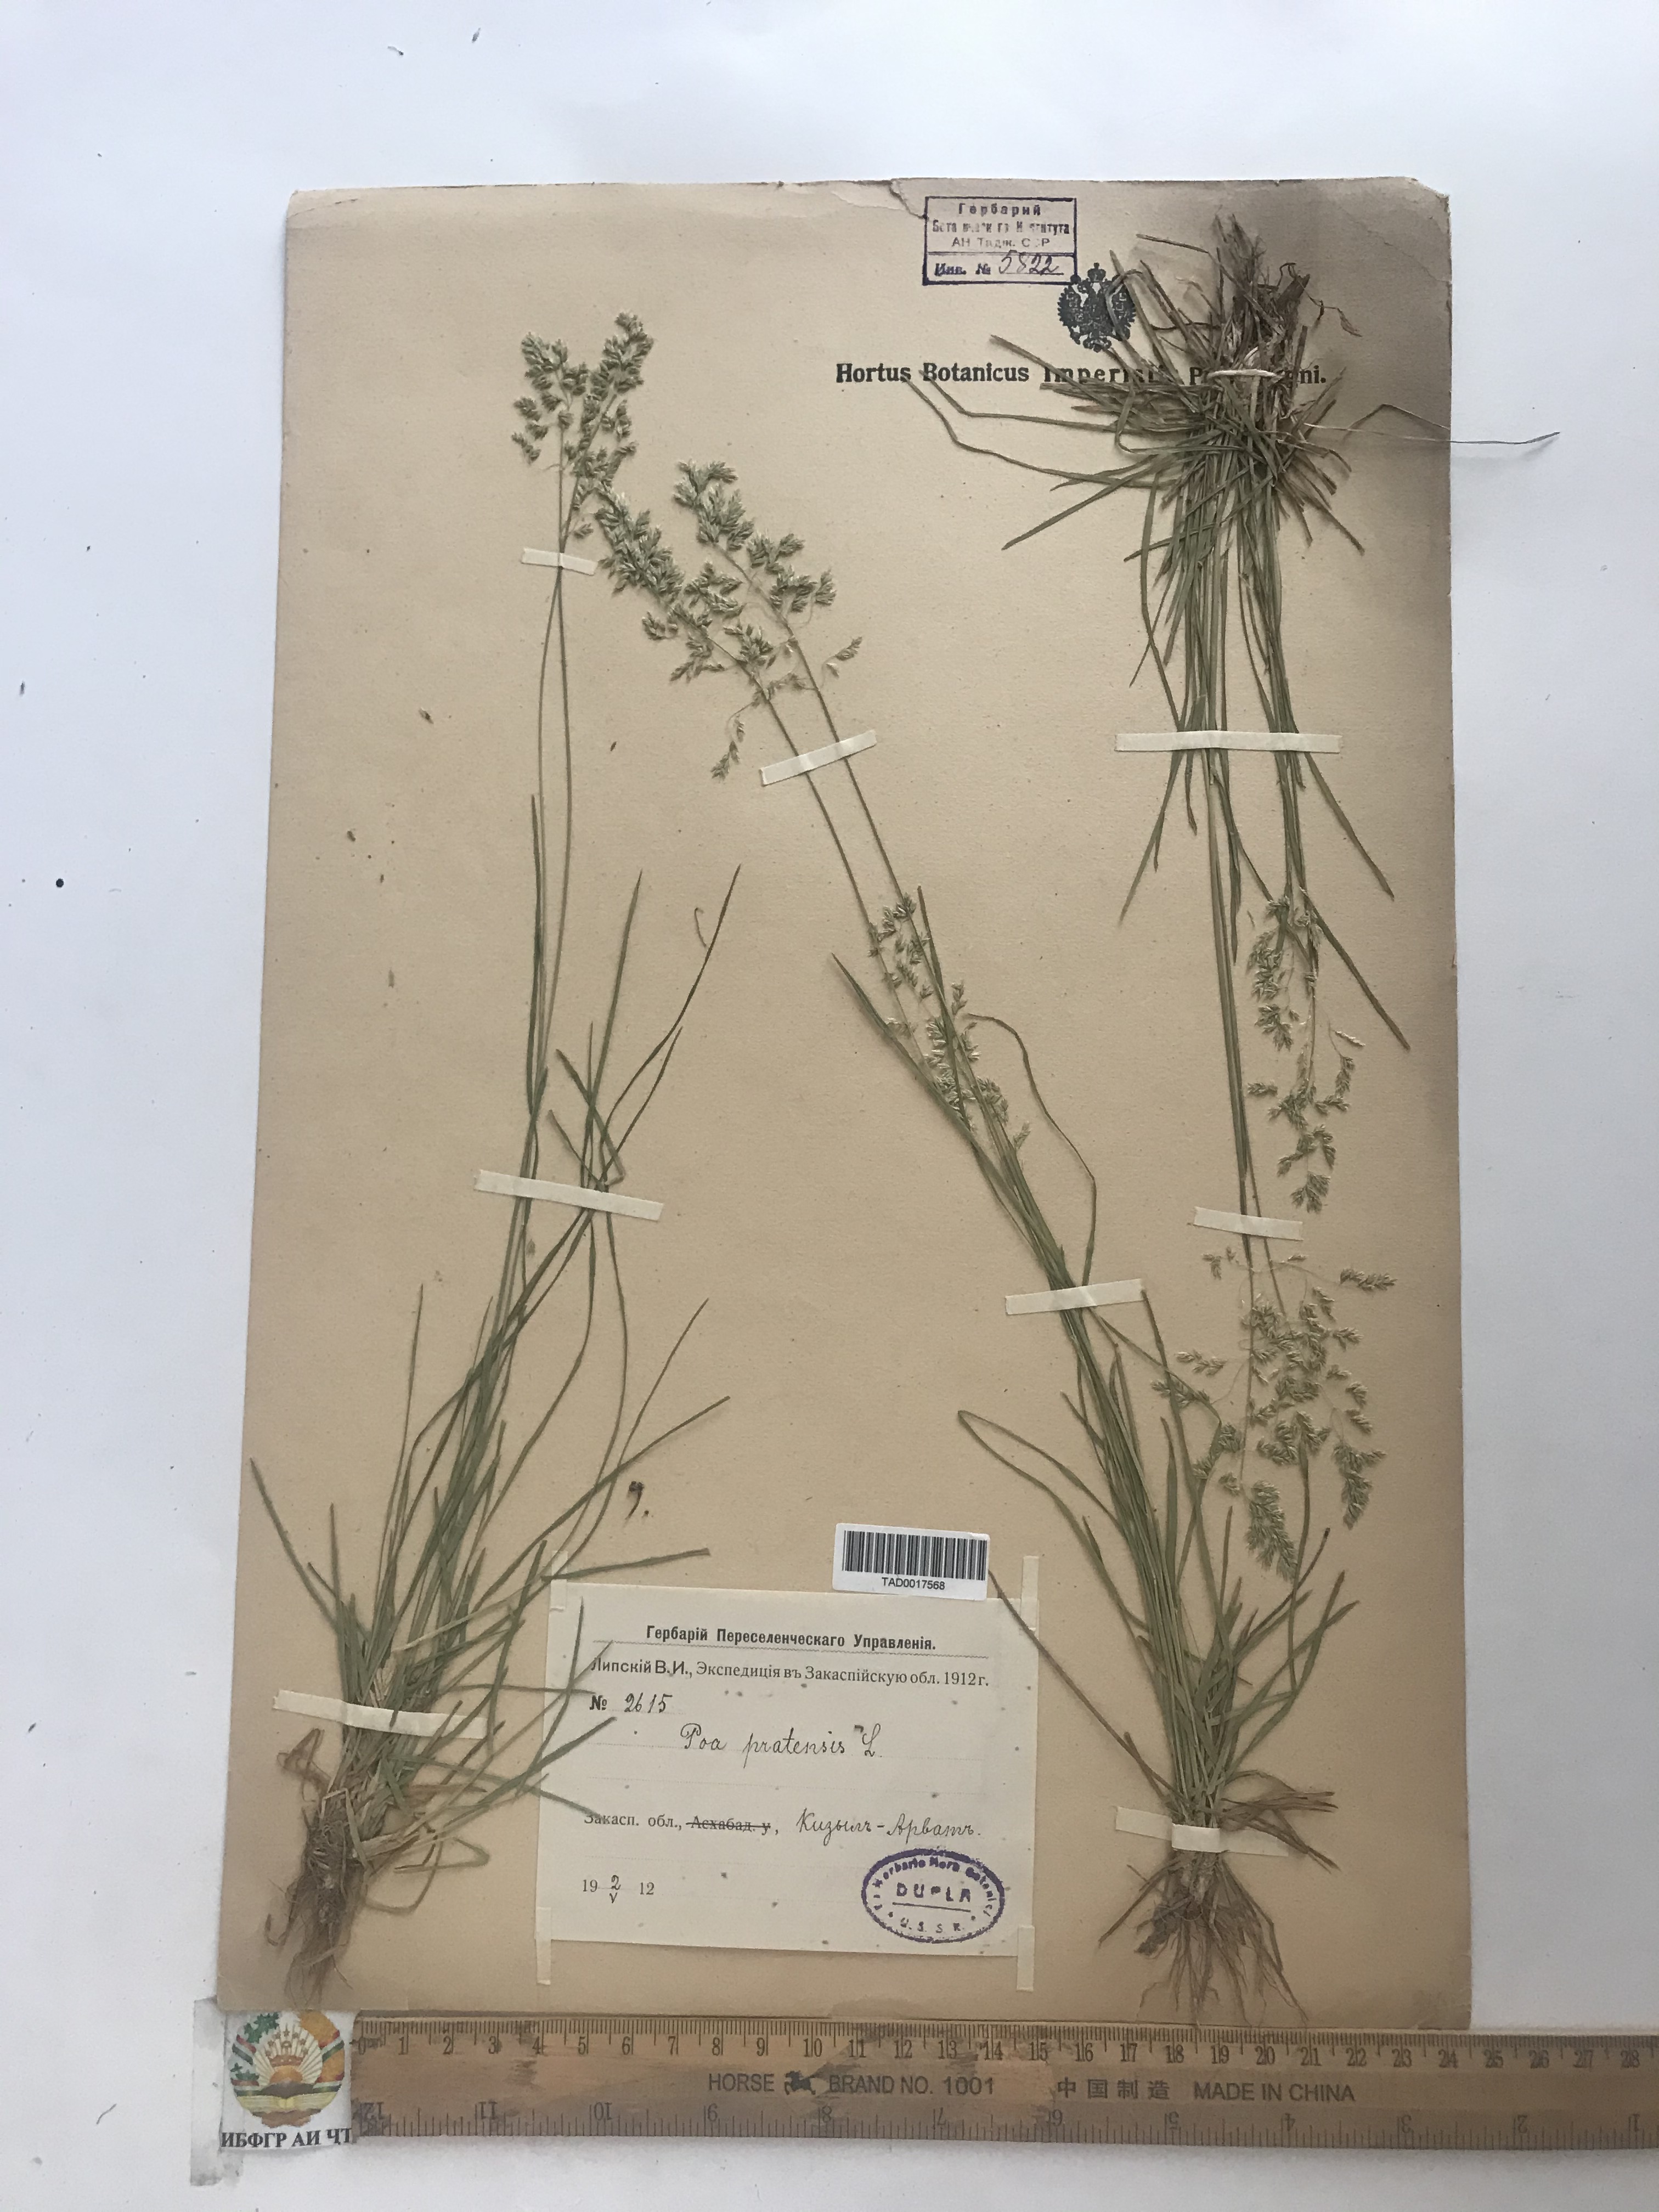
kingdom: Plantae
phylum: Tracheophyta
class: Liliopsida
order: Poales
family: Poaceae
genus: Poa
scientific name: Poa pratensis
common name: Kentucky bluegrass
